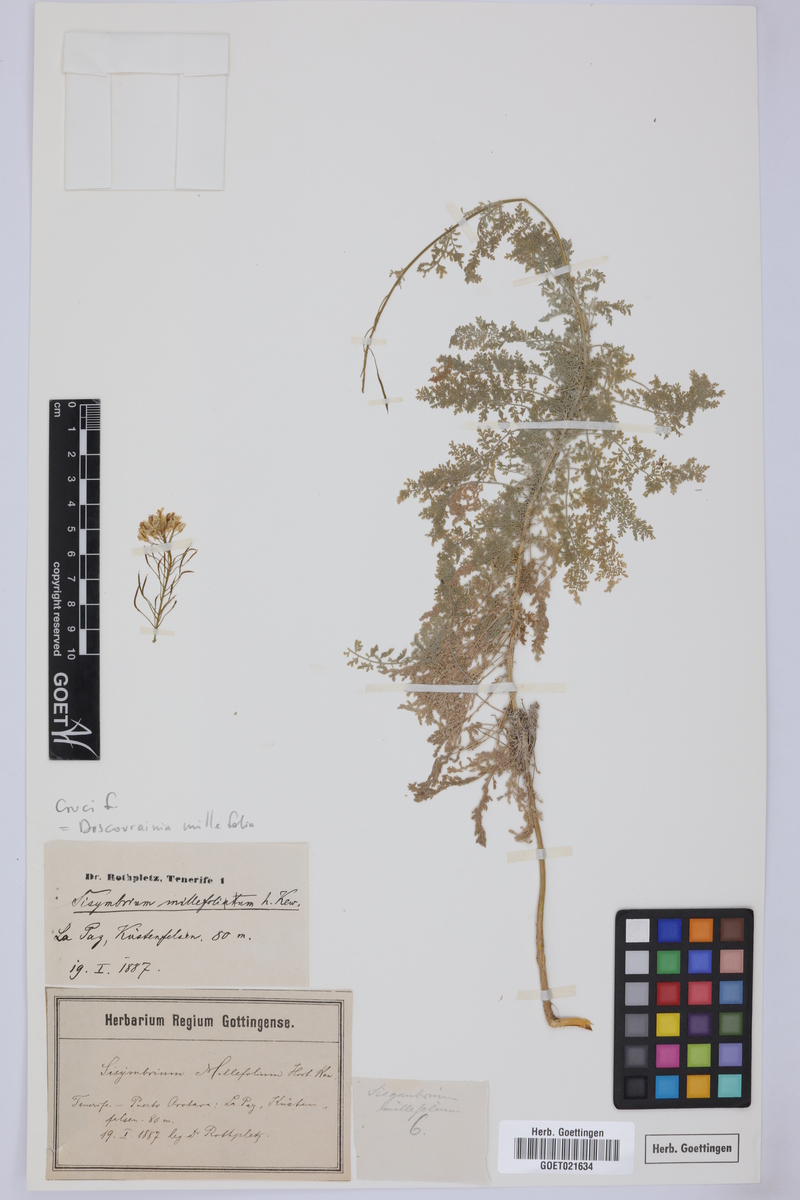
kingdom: Plantae
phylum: Tracheophyta
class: Magnoliopsida
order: Brassicales
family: Brassicaceae
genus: Descurainia
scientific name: Descurainia millefolia
